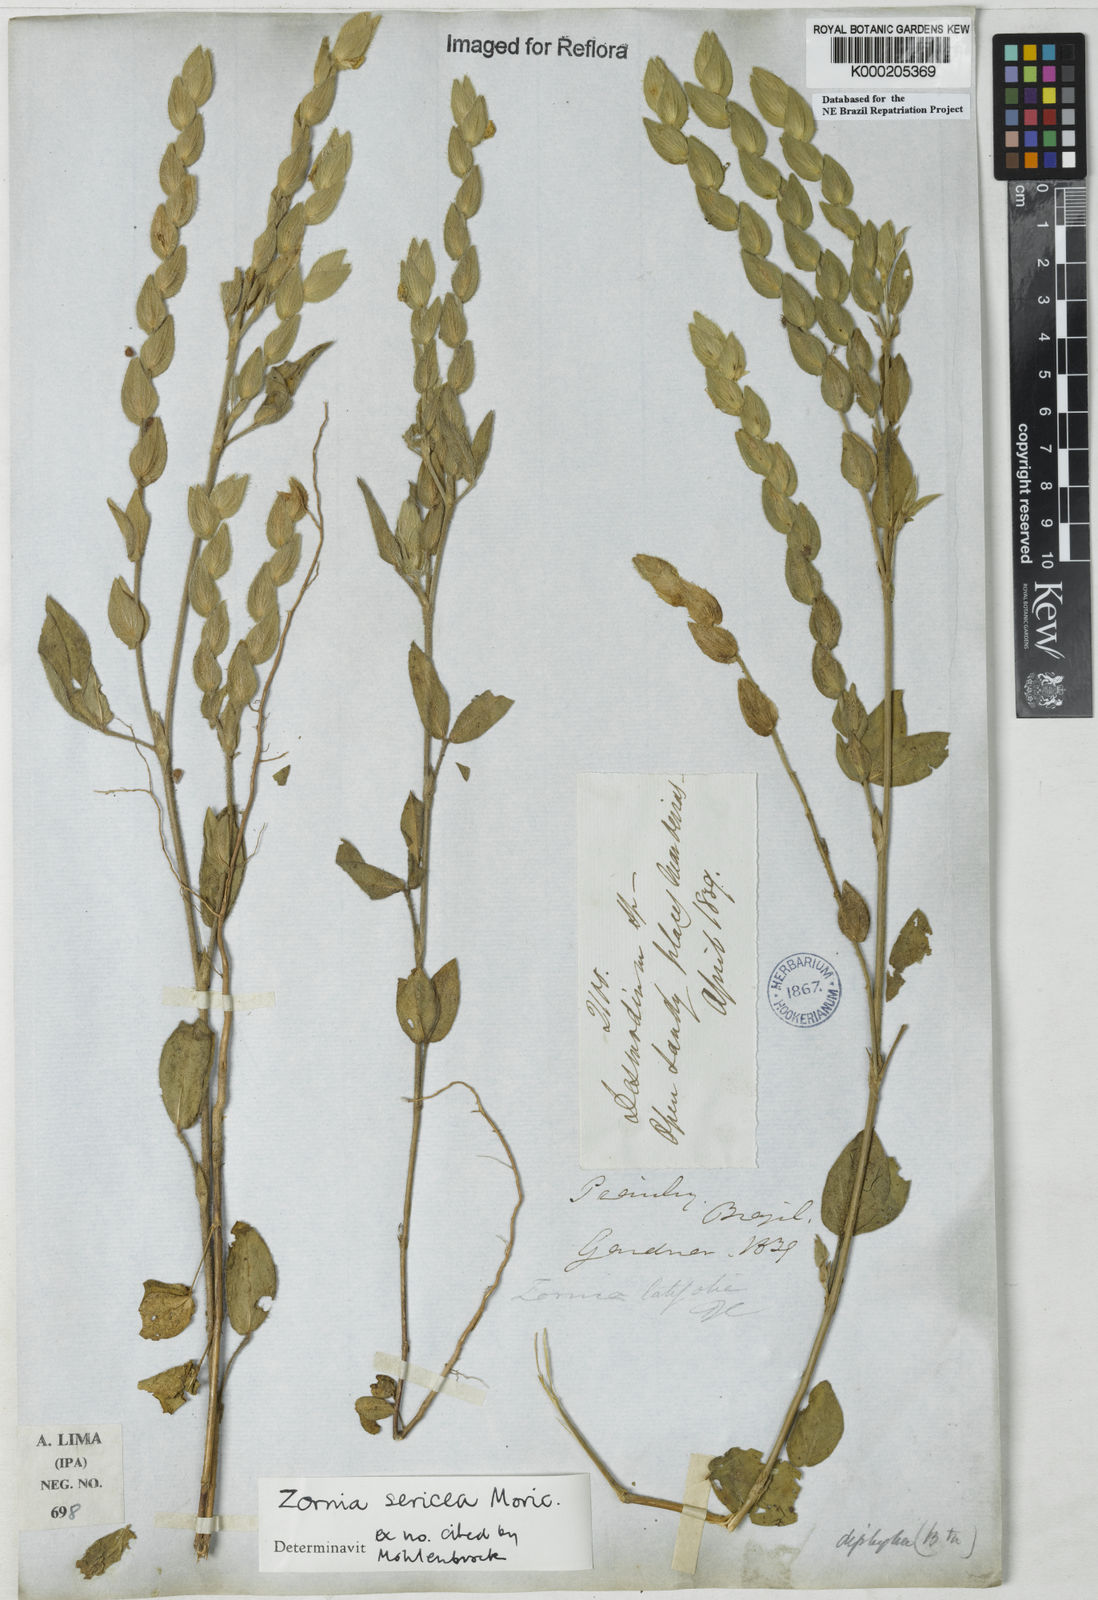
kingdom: Plantae
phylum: Tracheophyta
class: Magnoliopsida
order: Fabales
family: Fabaceae
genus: Zornia
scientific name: Zornia sericea
